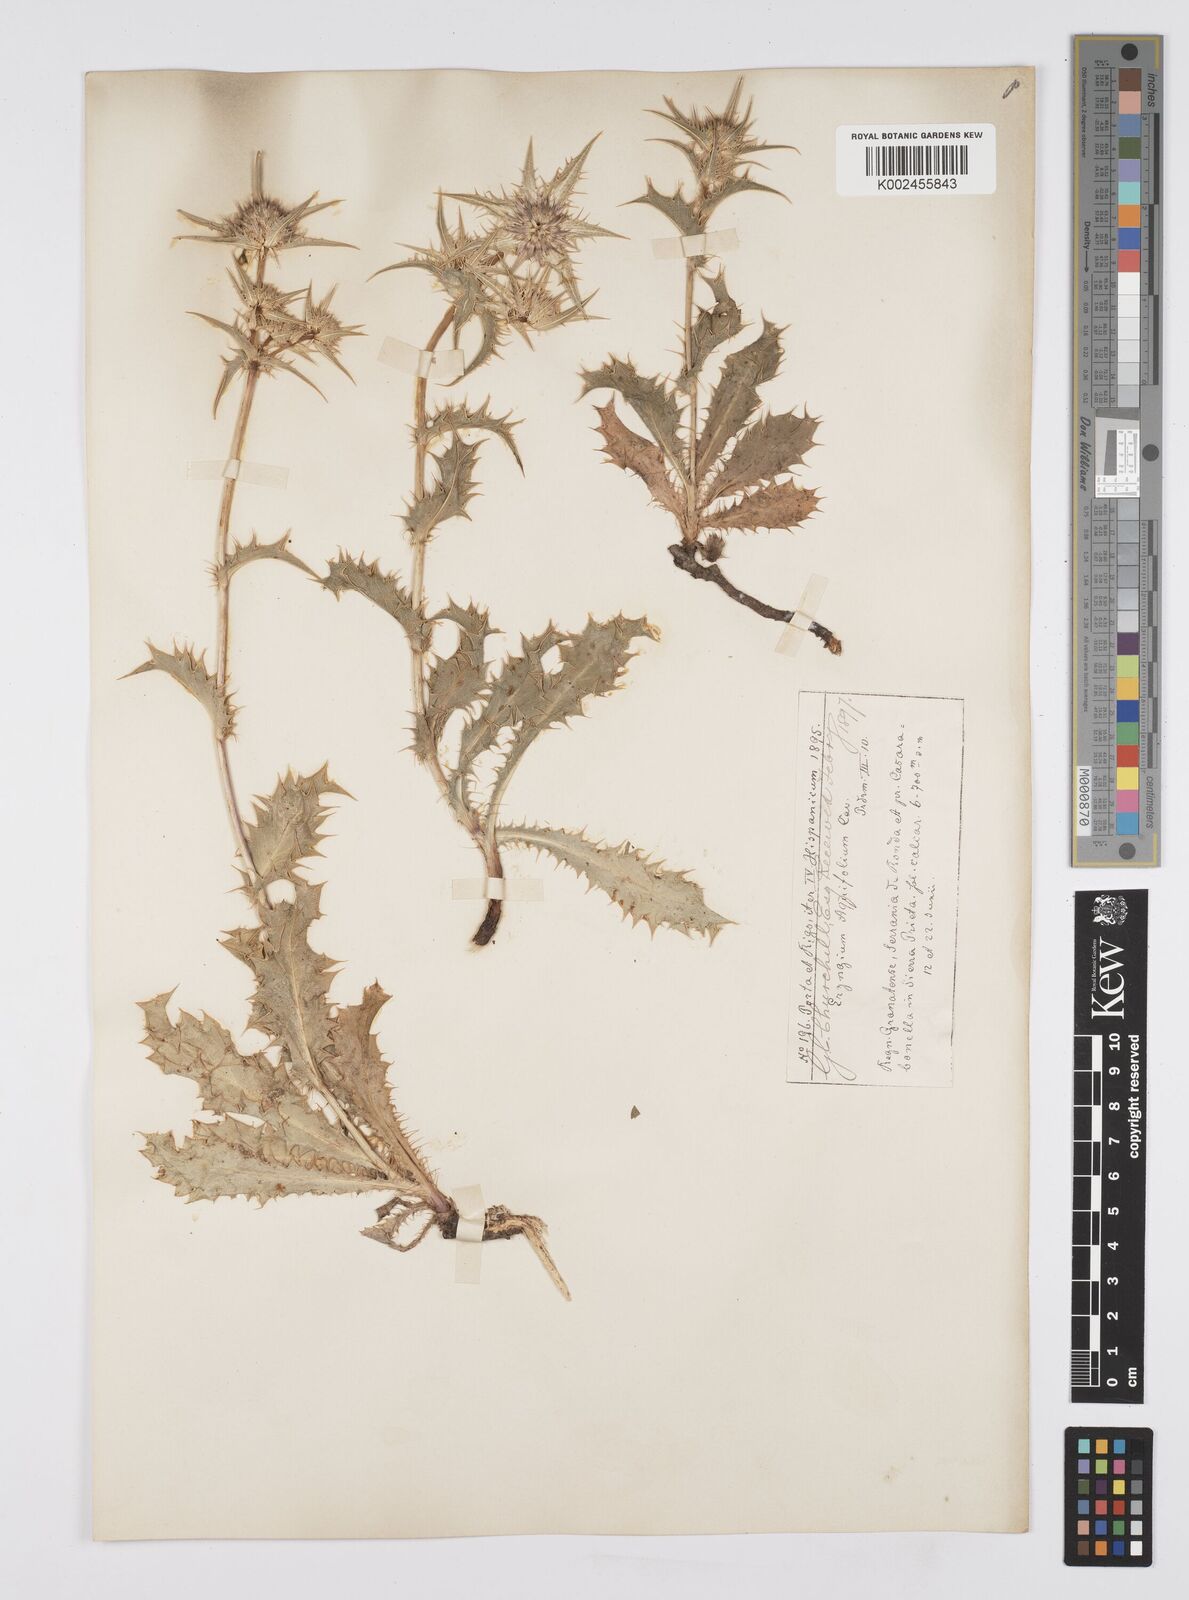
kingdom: Plantae
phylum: Tracheophyta
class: Magnoliopsida
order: Apiales
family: Apiaceae
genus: Eryngium
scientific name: Eryngium aquifolium
